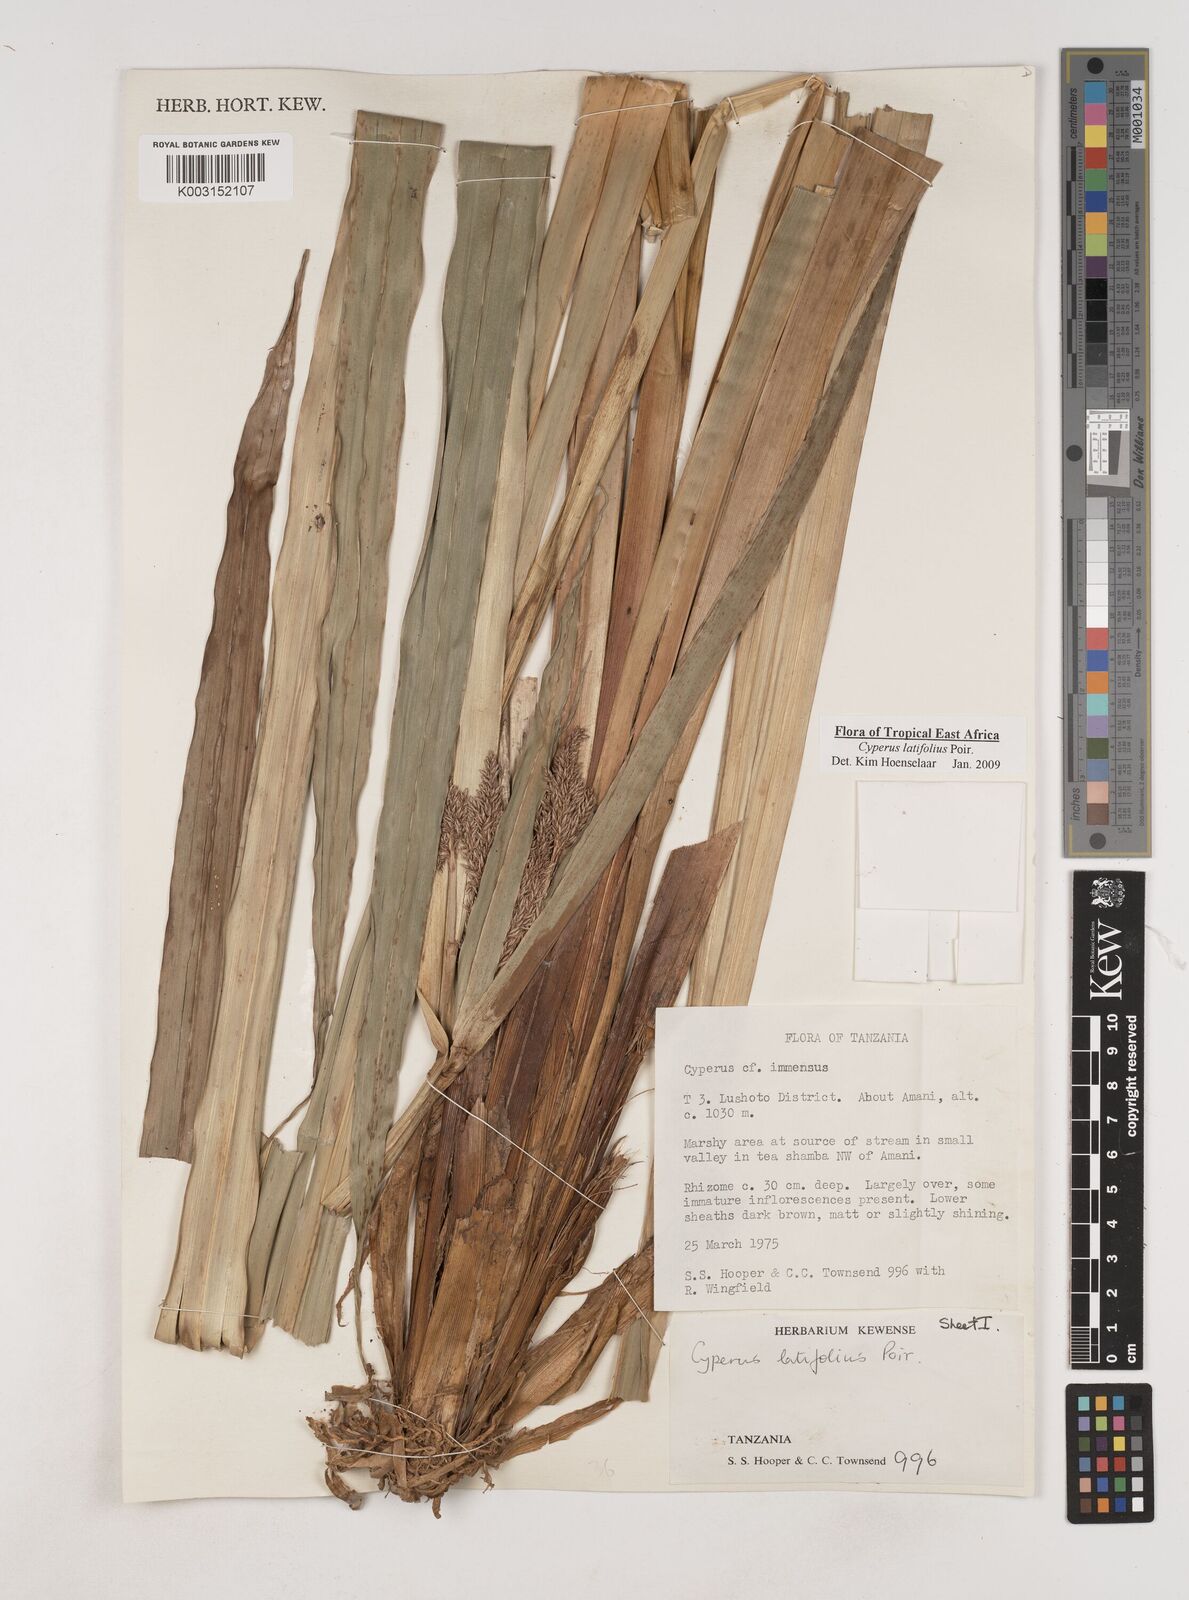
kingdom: Plantae
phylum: Tracheophyta
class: Liliopsida
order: Poales
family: Cyperaceae
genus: Cyperus
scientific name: Cyperus latifolius
